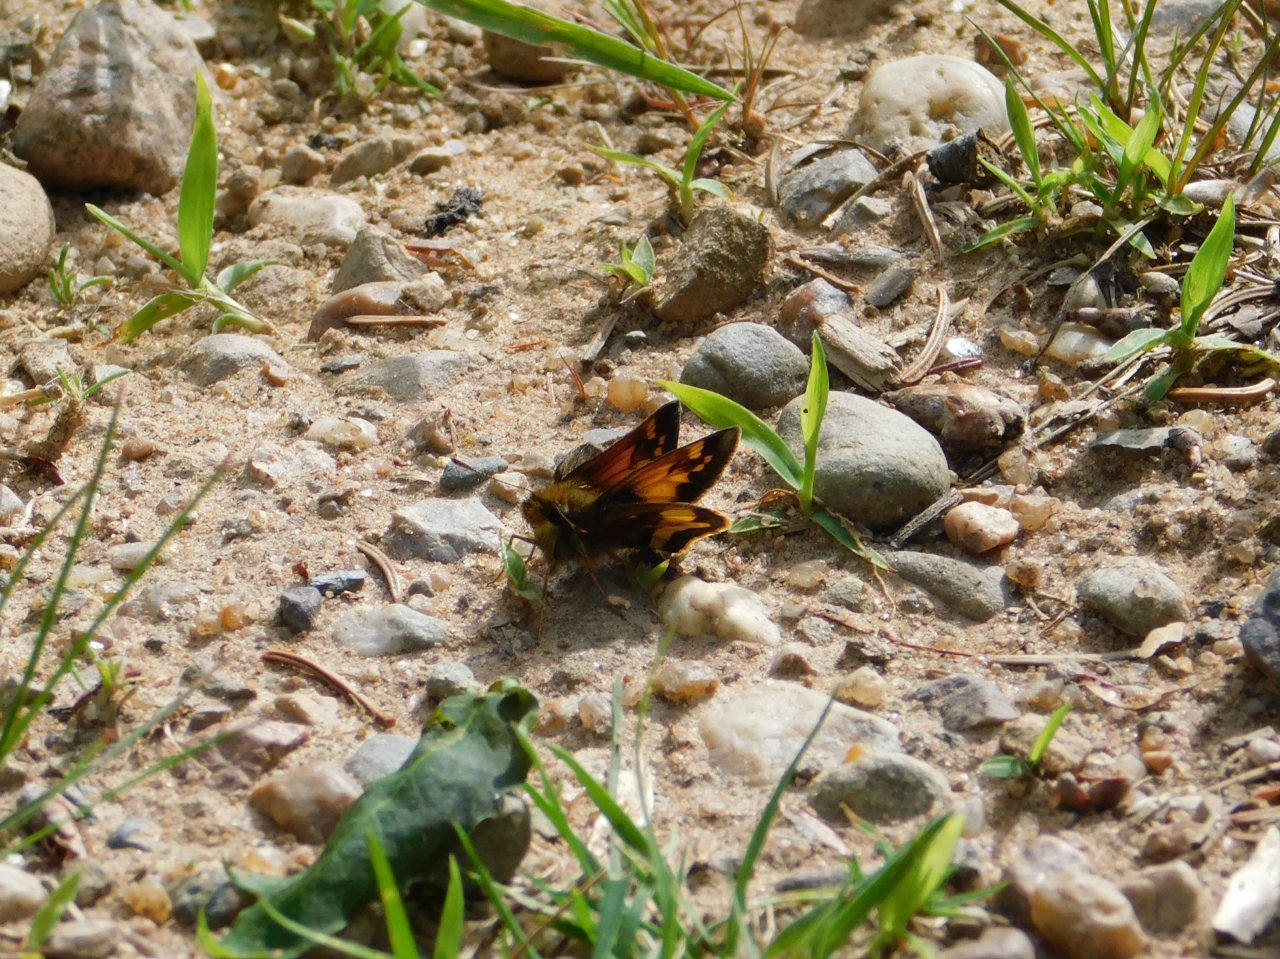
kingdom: Animalia
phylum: Arthropoda
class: Insecta
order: Lepidoptera
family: Hesperiidae
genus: Lon
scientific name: Lon hobomok
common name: Hobomok Skipper
